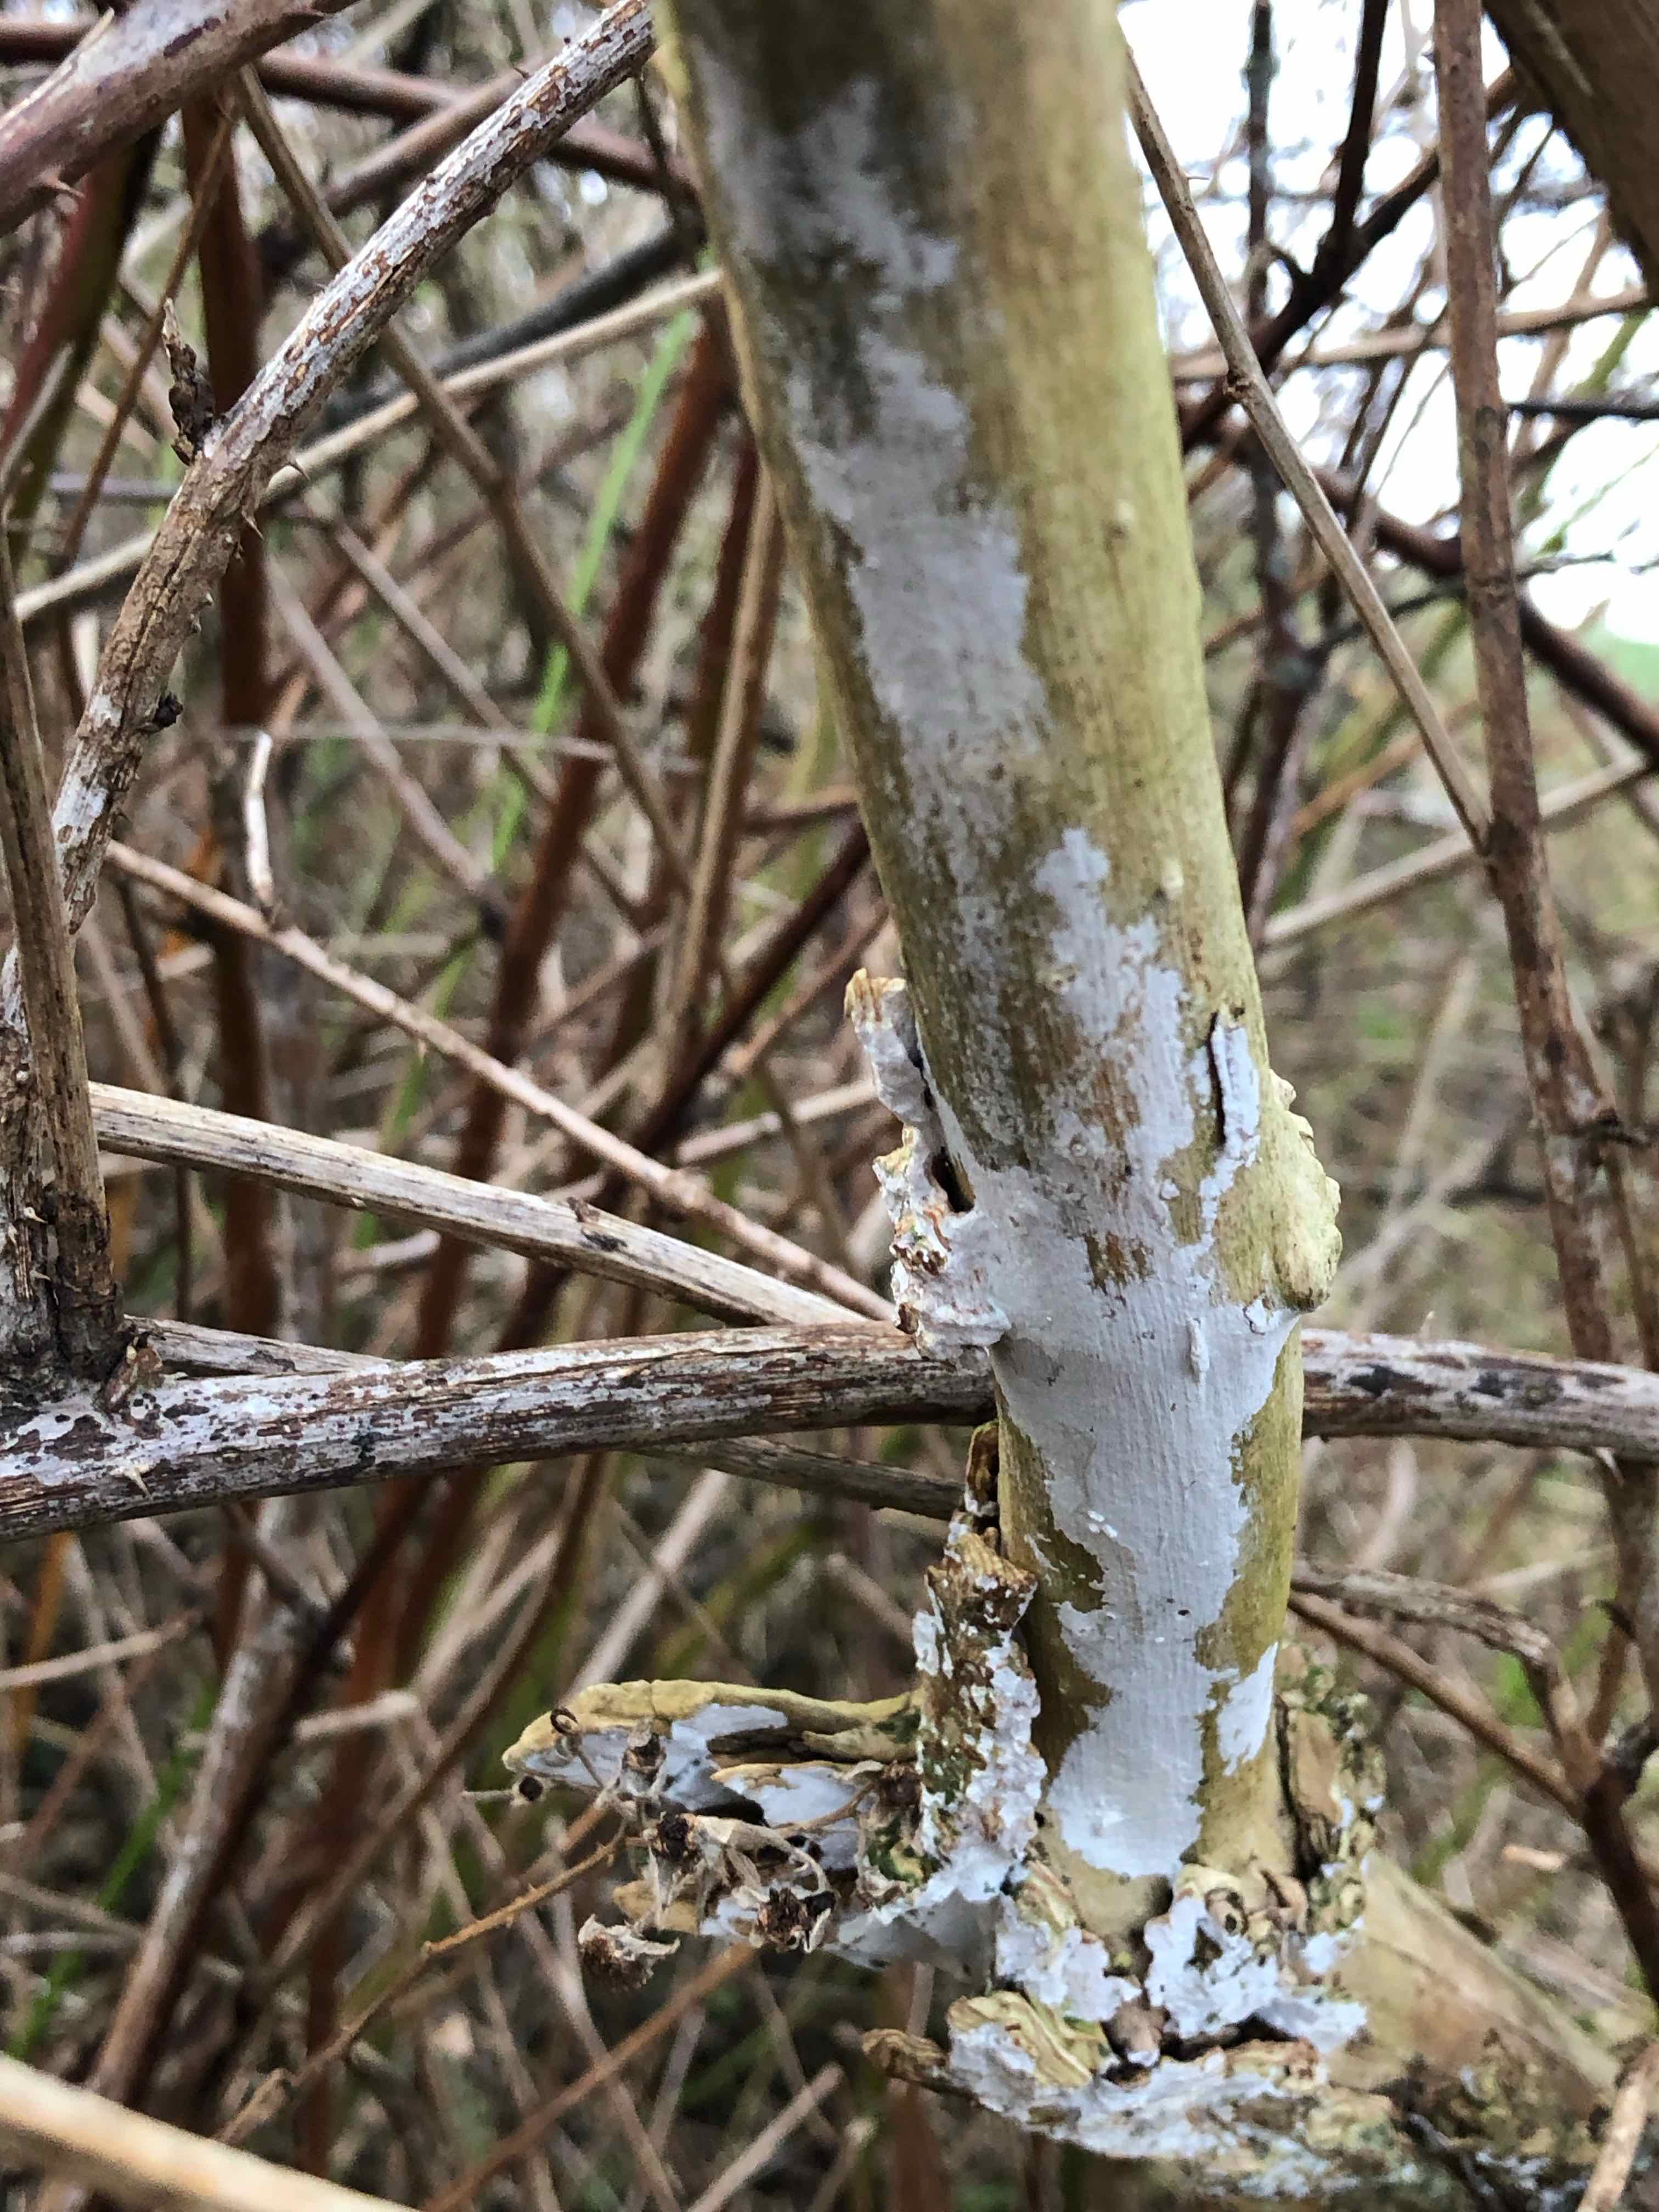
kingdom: Fungi
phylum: Basidiomycota
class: Agaricomycetes
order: Corticiales
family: Corticiaceae
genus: Lyomyces
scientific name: Lyomyces sambuci
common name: almindelig hyldehinde
